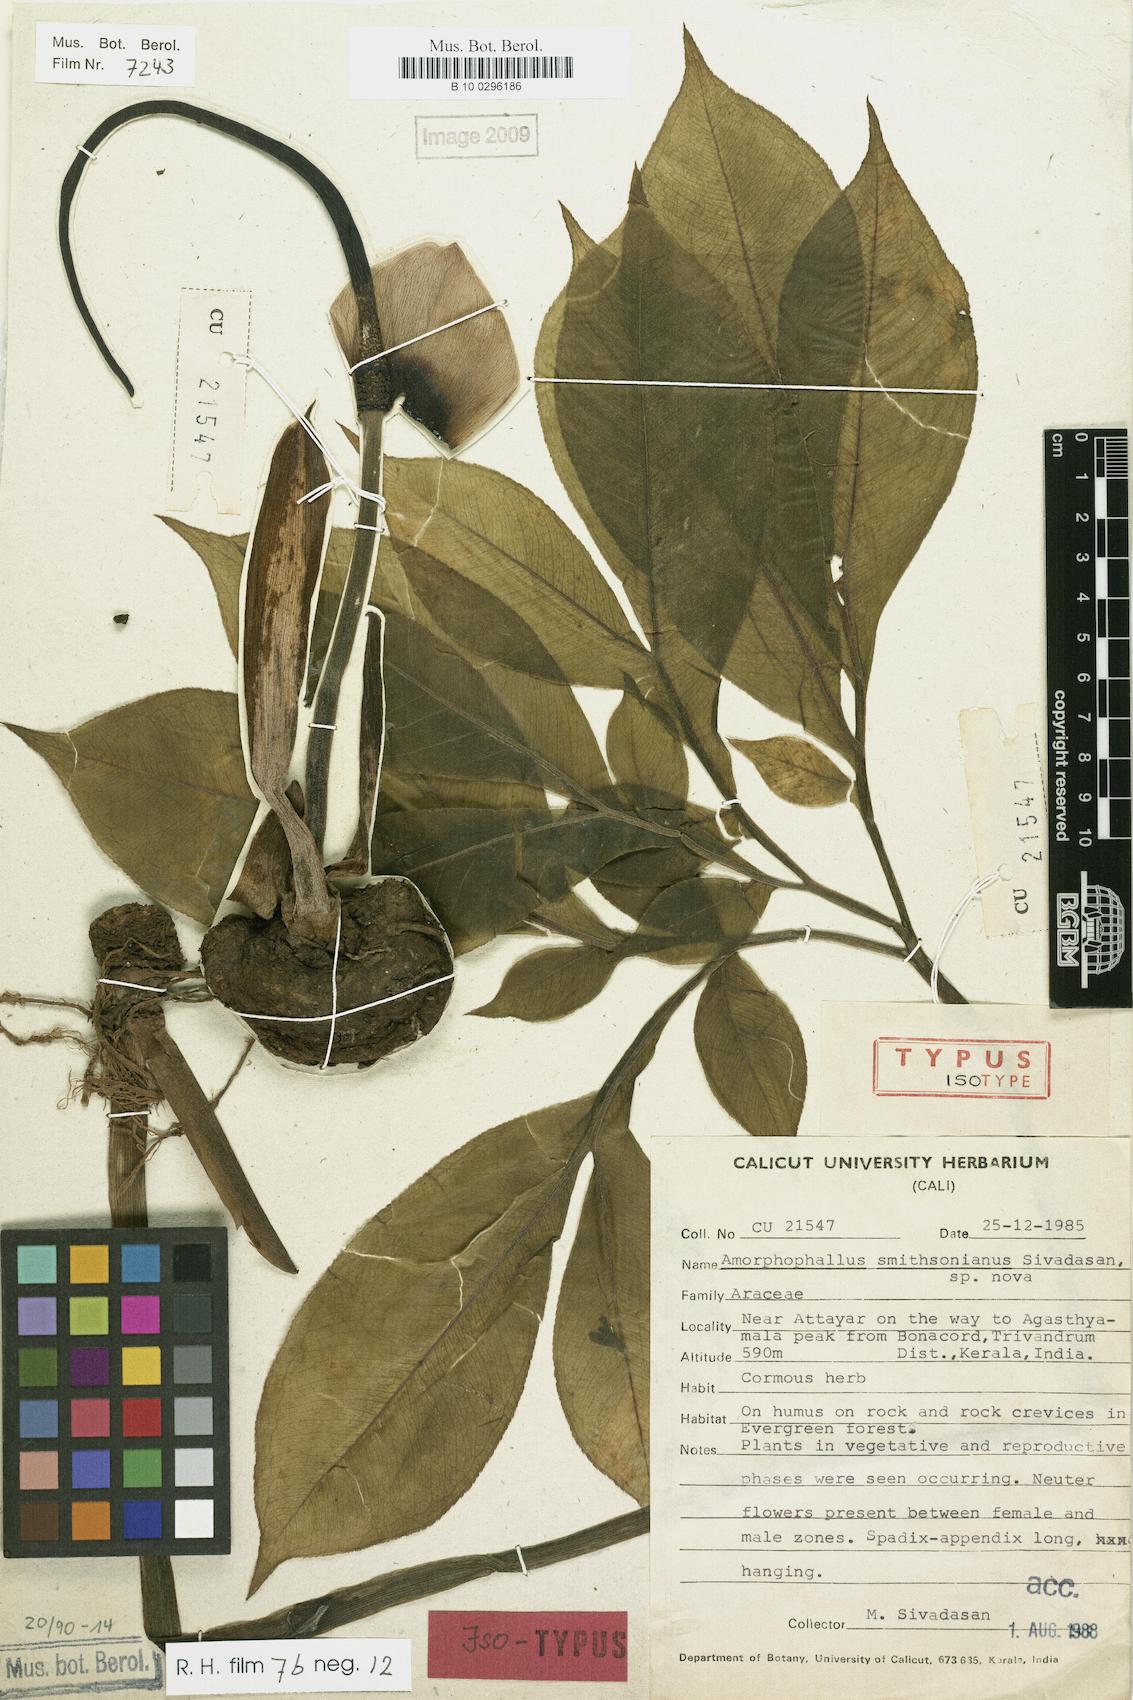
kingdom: Plantae
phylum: Tracheophyta
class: Liliopsida
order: Alismatales
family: Araceae
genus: Amorphophallus
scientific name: Amorphophallus smithsonianus
